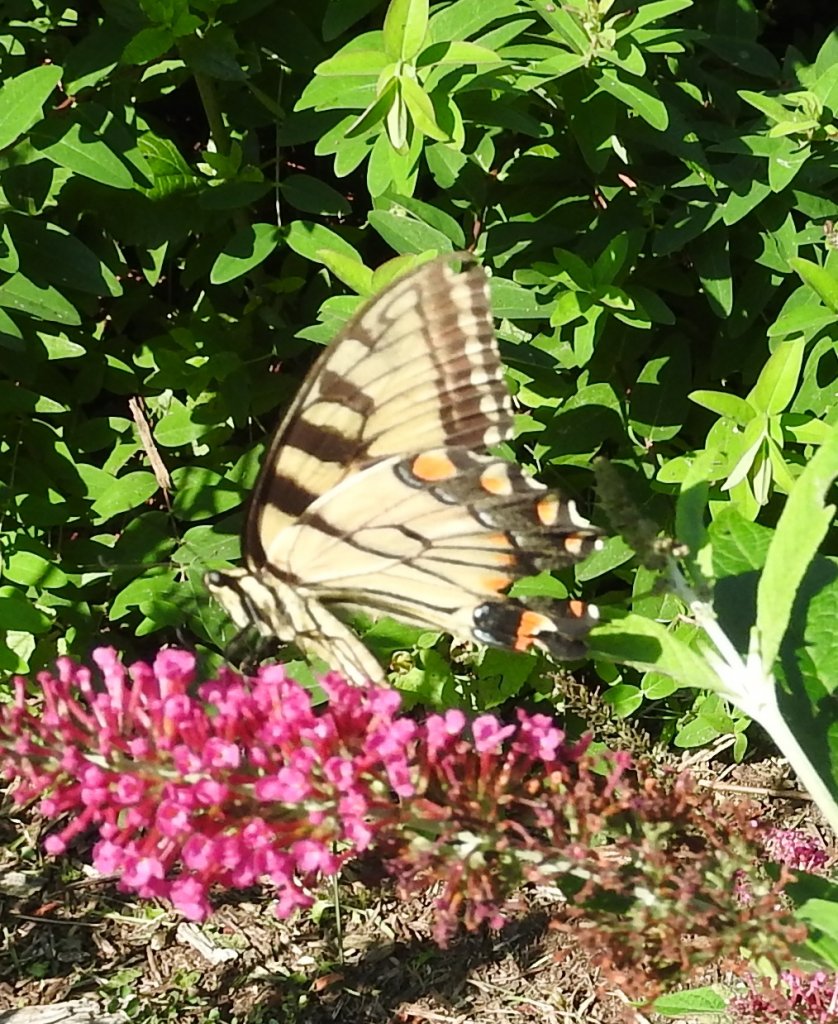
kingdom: Animalia
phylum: Arthropoda
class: Insecta
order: Lepidoptera
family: Papilionidae
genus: Pterourus
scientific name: Pterourus glaucus
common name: Eastern Tiger Swallowtail
